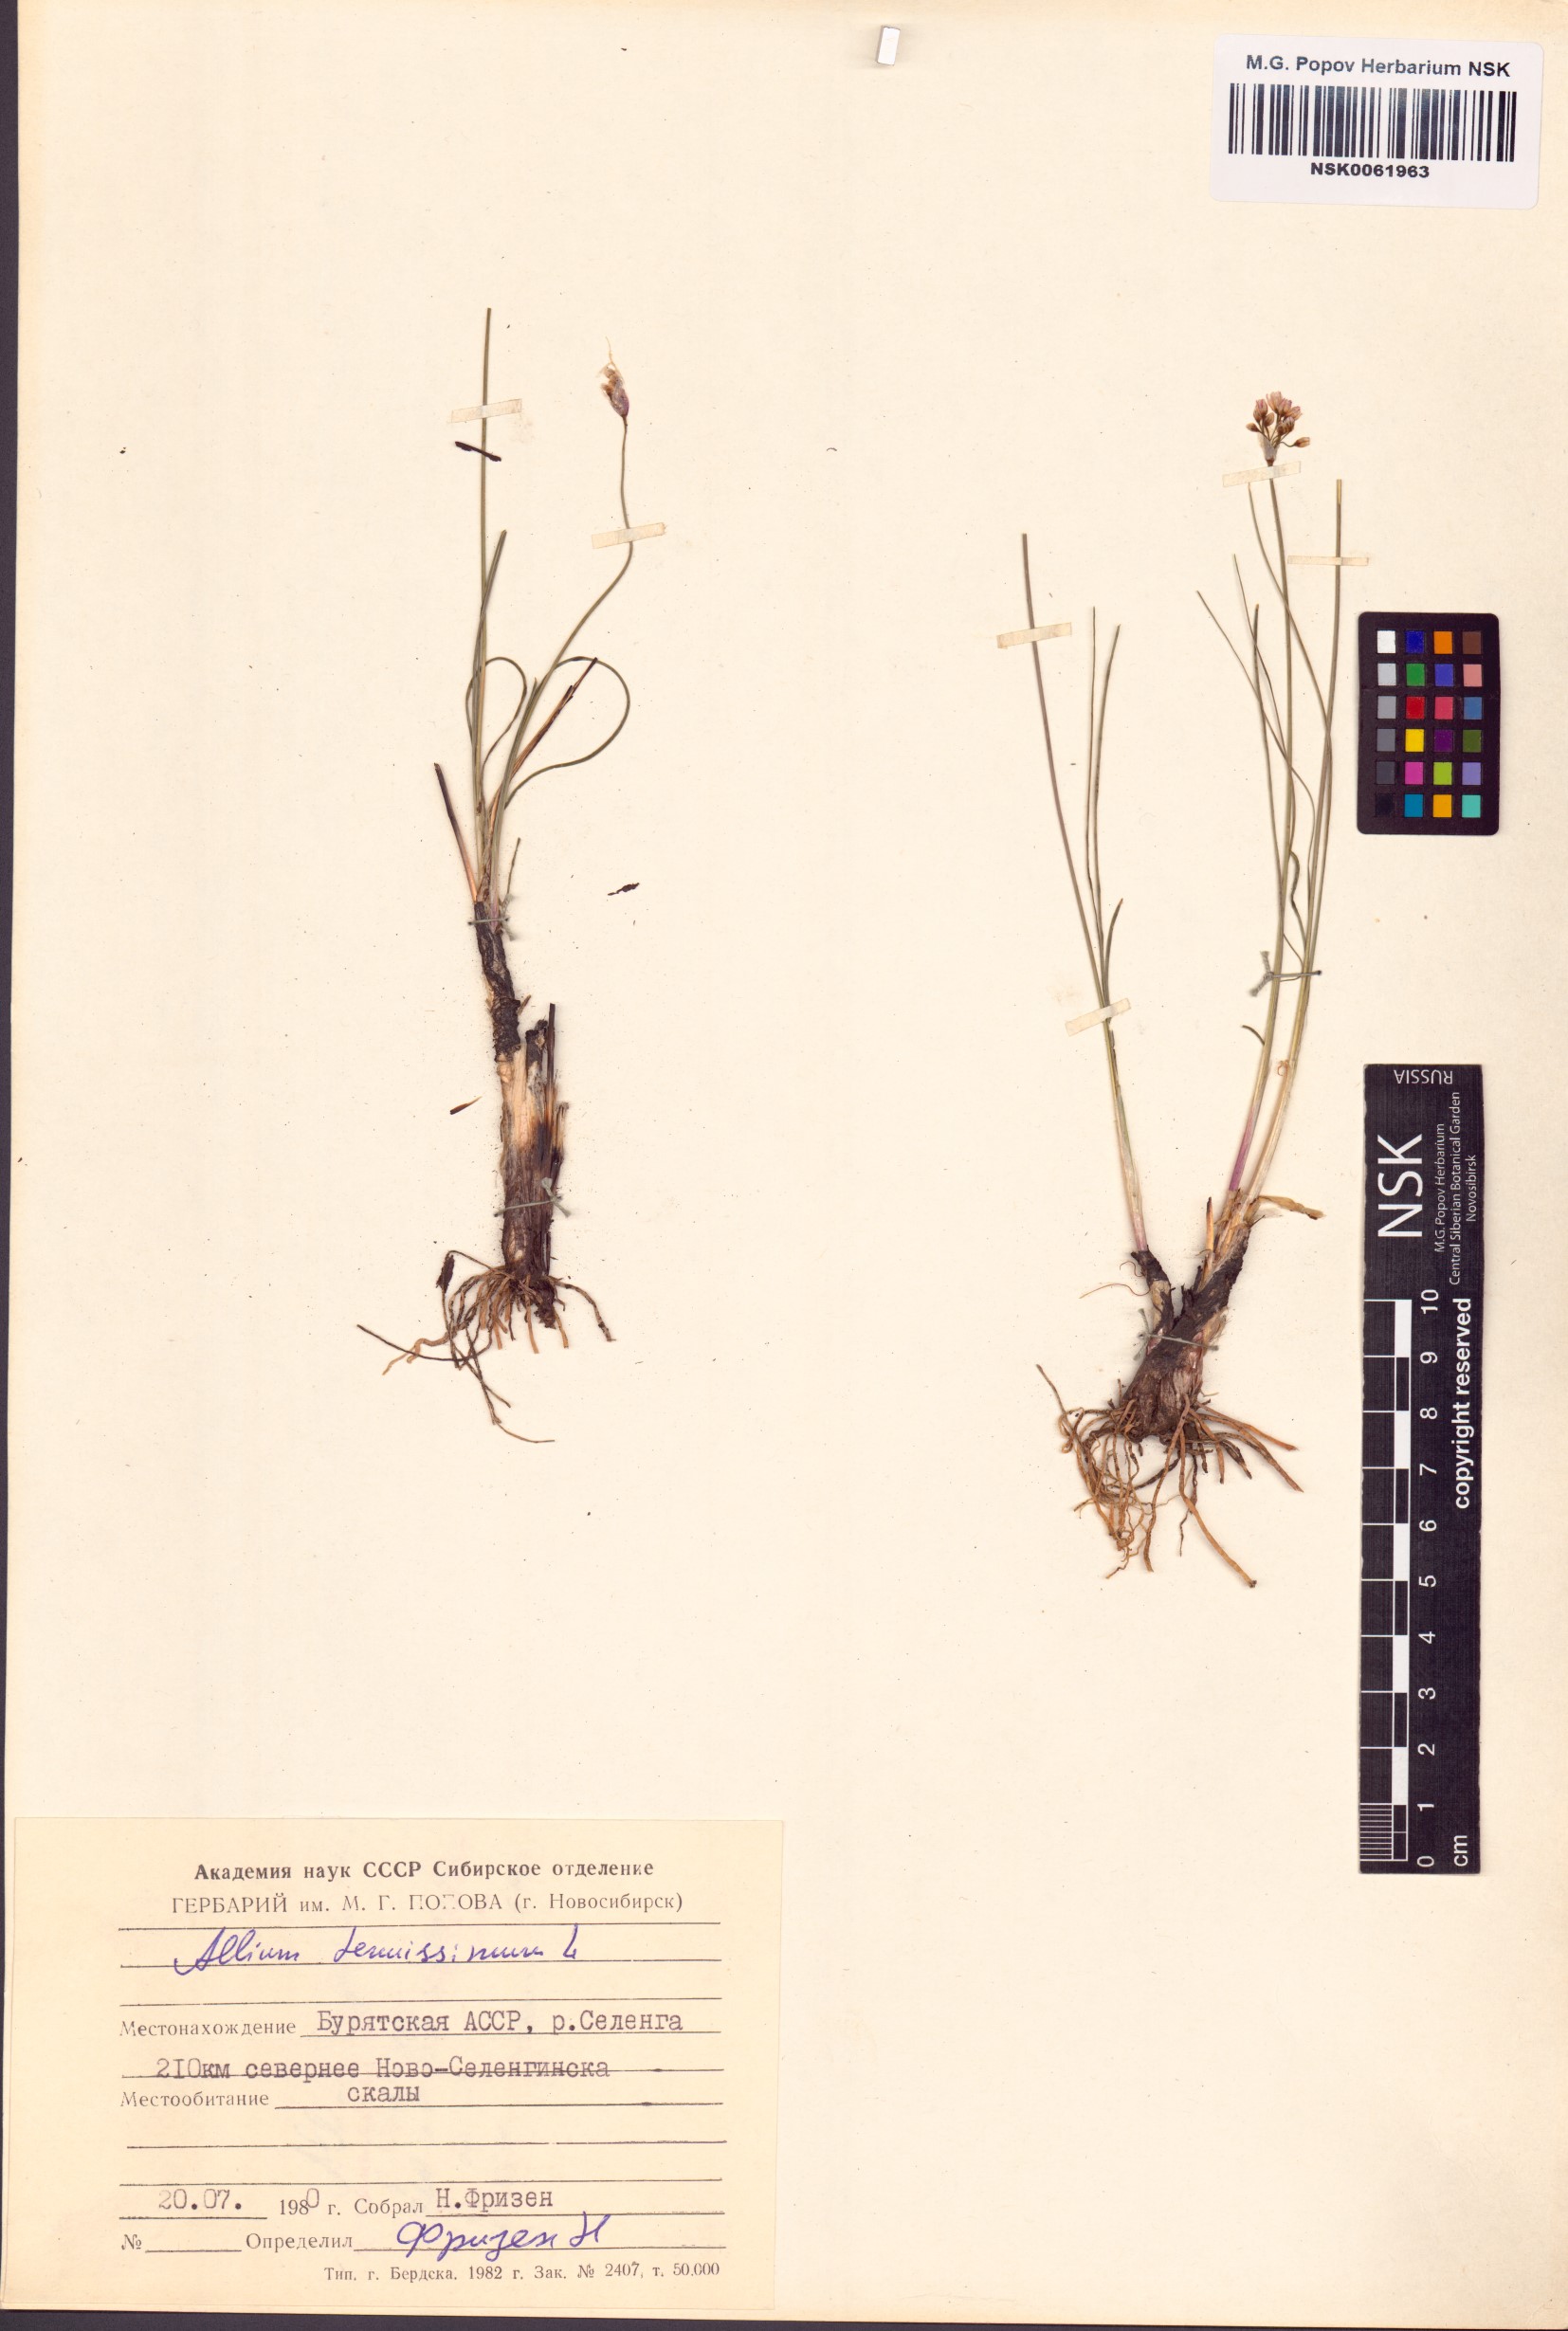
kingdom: Plantae
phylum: Tracheophyta
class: Liliopsida
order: Asparagales
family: Amaryllidaceae
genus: Allium
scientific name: Allium tenuissimum
